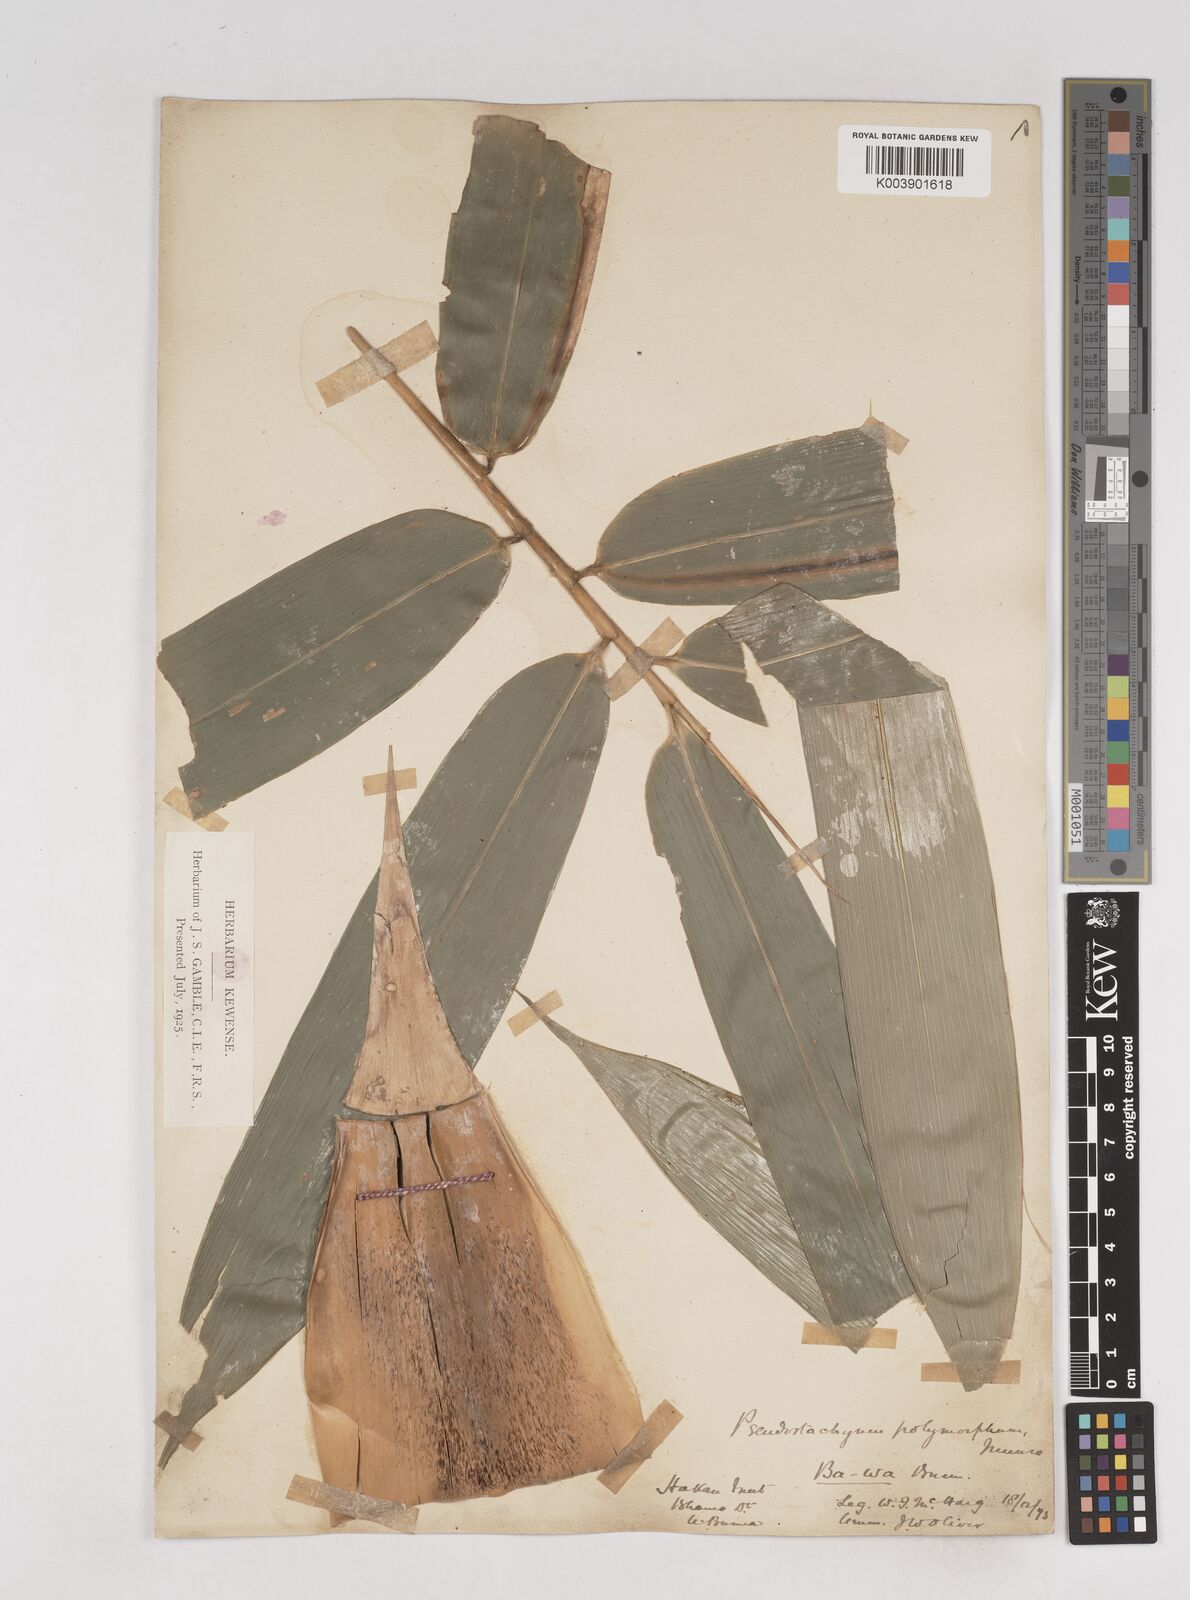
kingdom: Plantae
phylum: Tracheophyta
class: Liliopsida
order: Poales
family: Poaceae
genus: Pseudostachyum
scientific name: Pseudostachyum polymorphum
